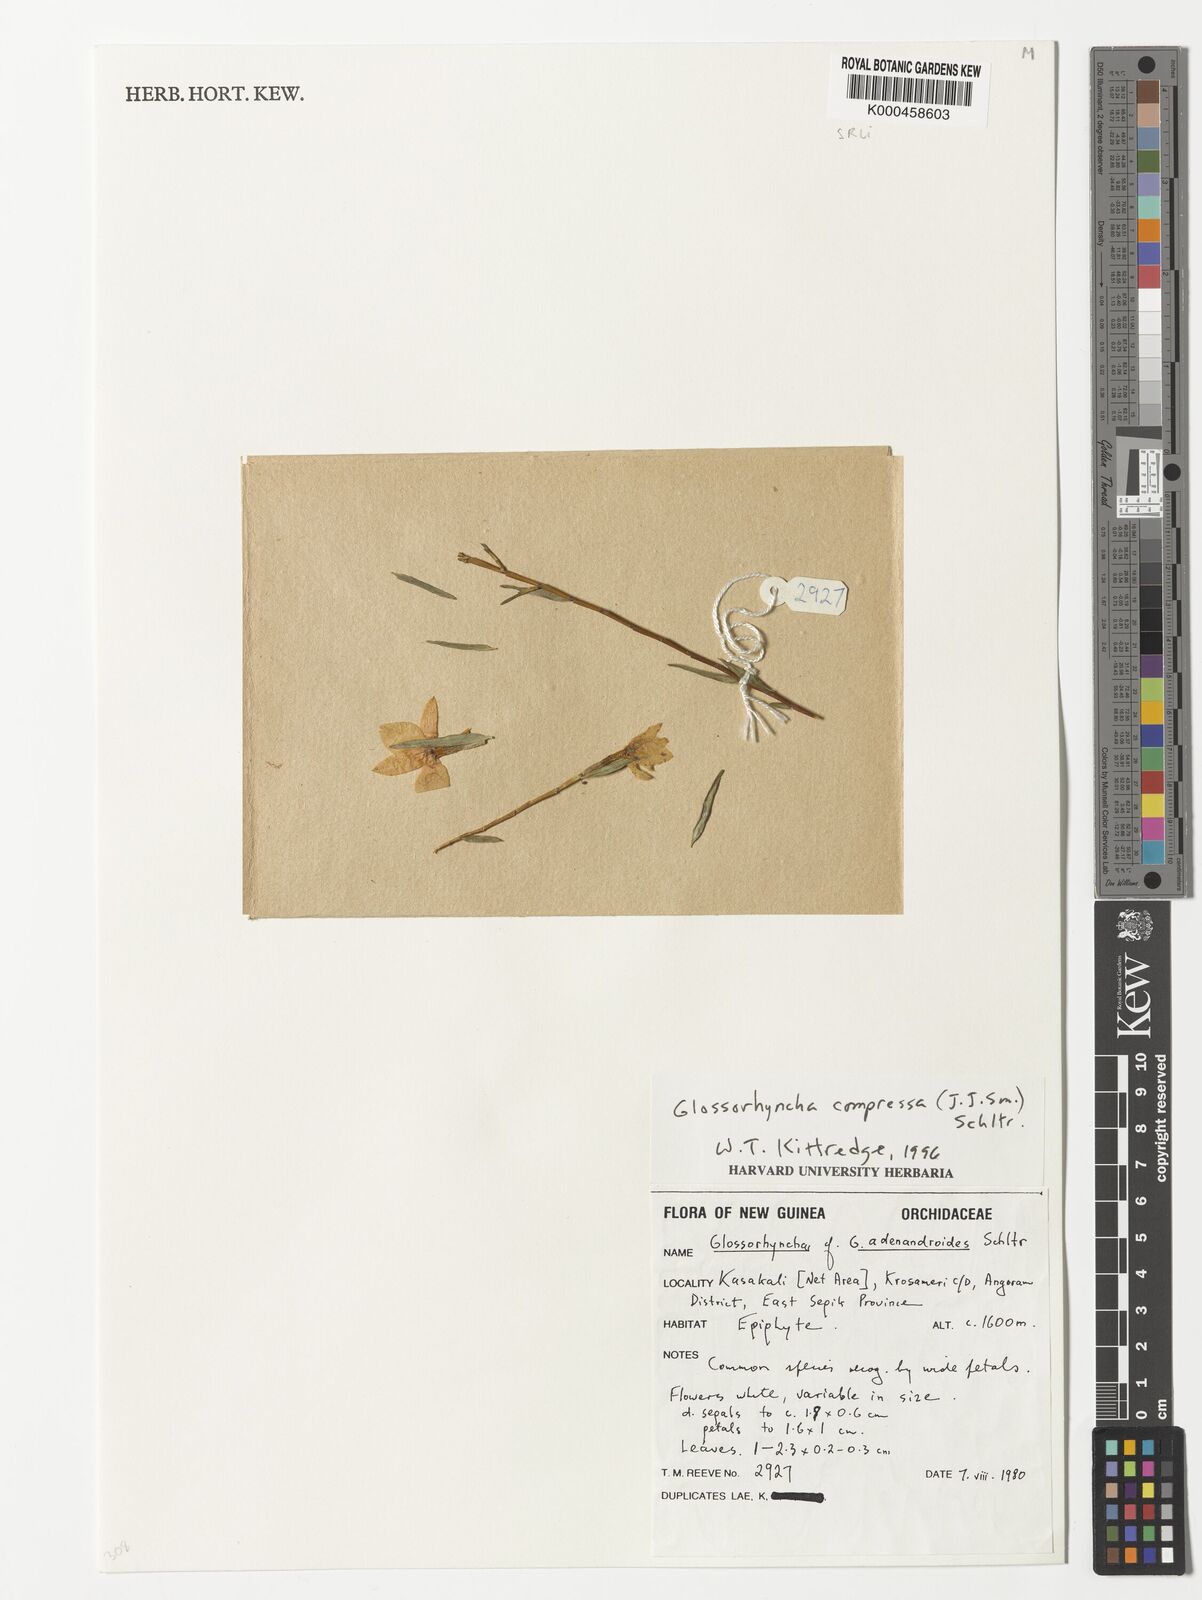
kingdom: Plantae
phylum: Tracheophyta
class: Liliopsida
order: Asparagales
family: Orchidaceae
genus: Glomera
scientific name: Glomera compressa
